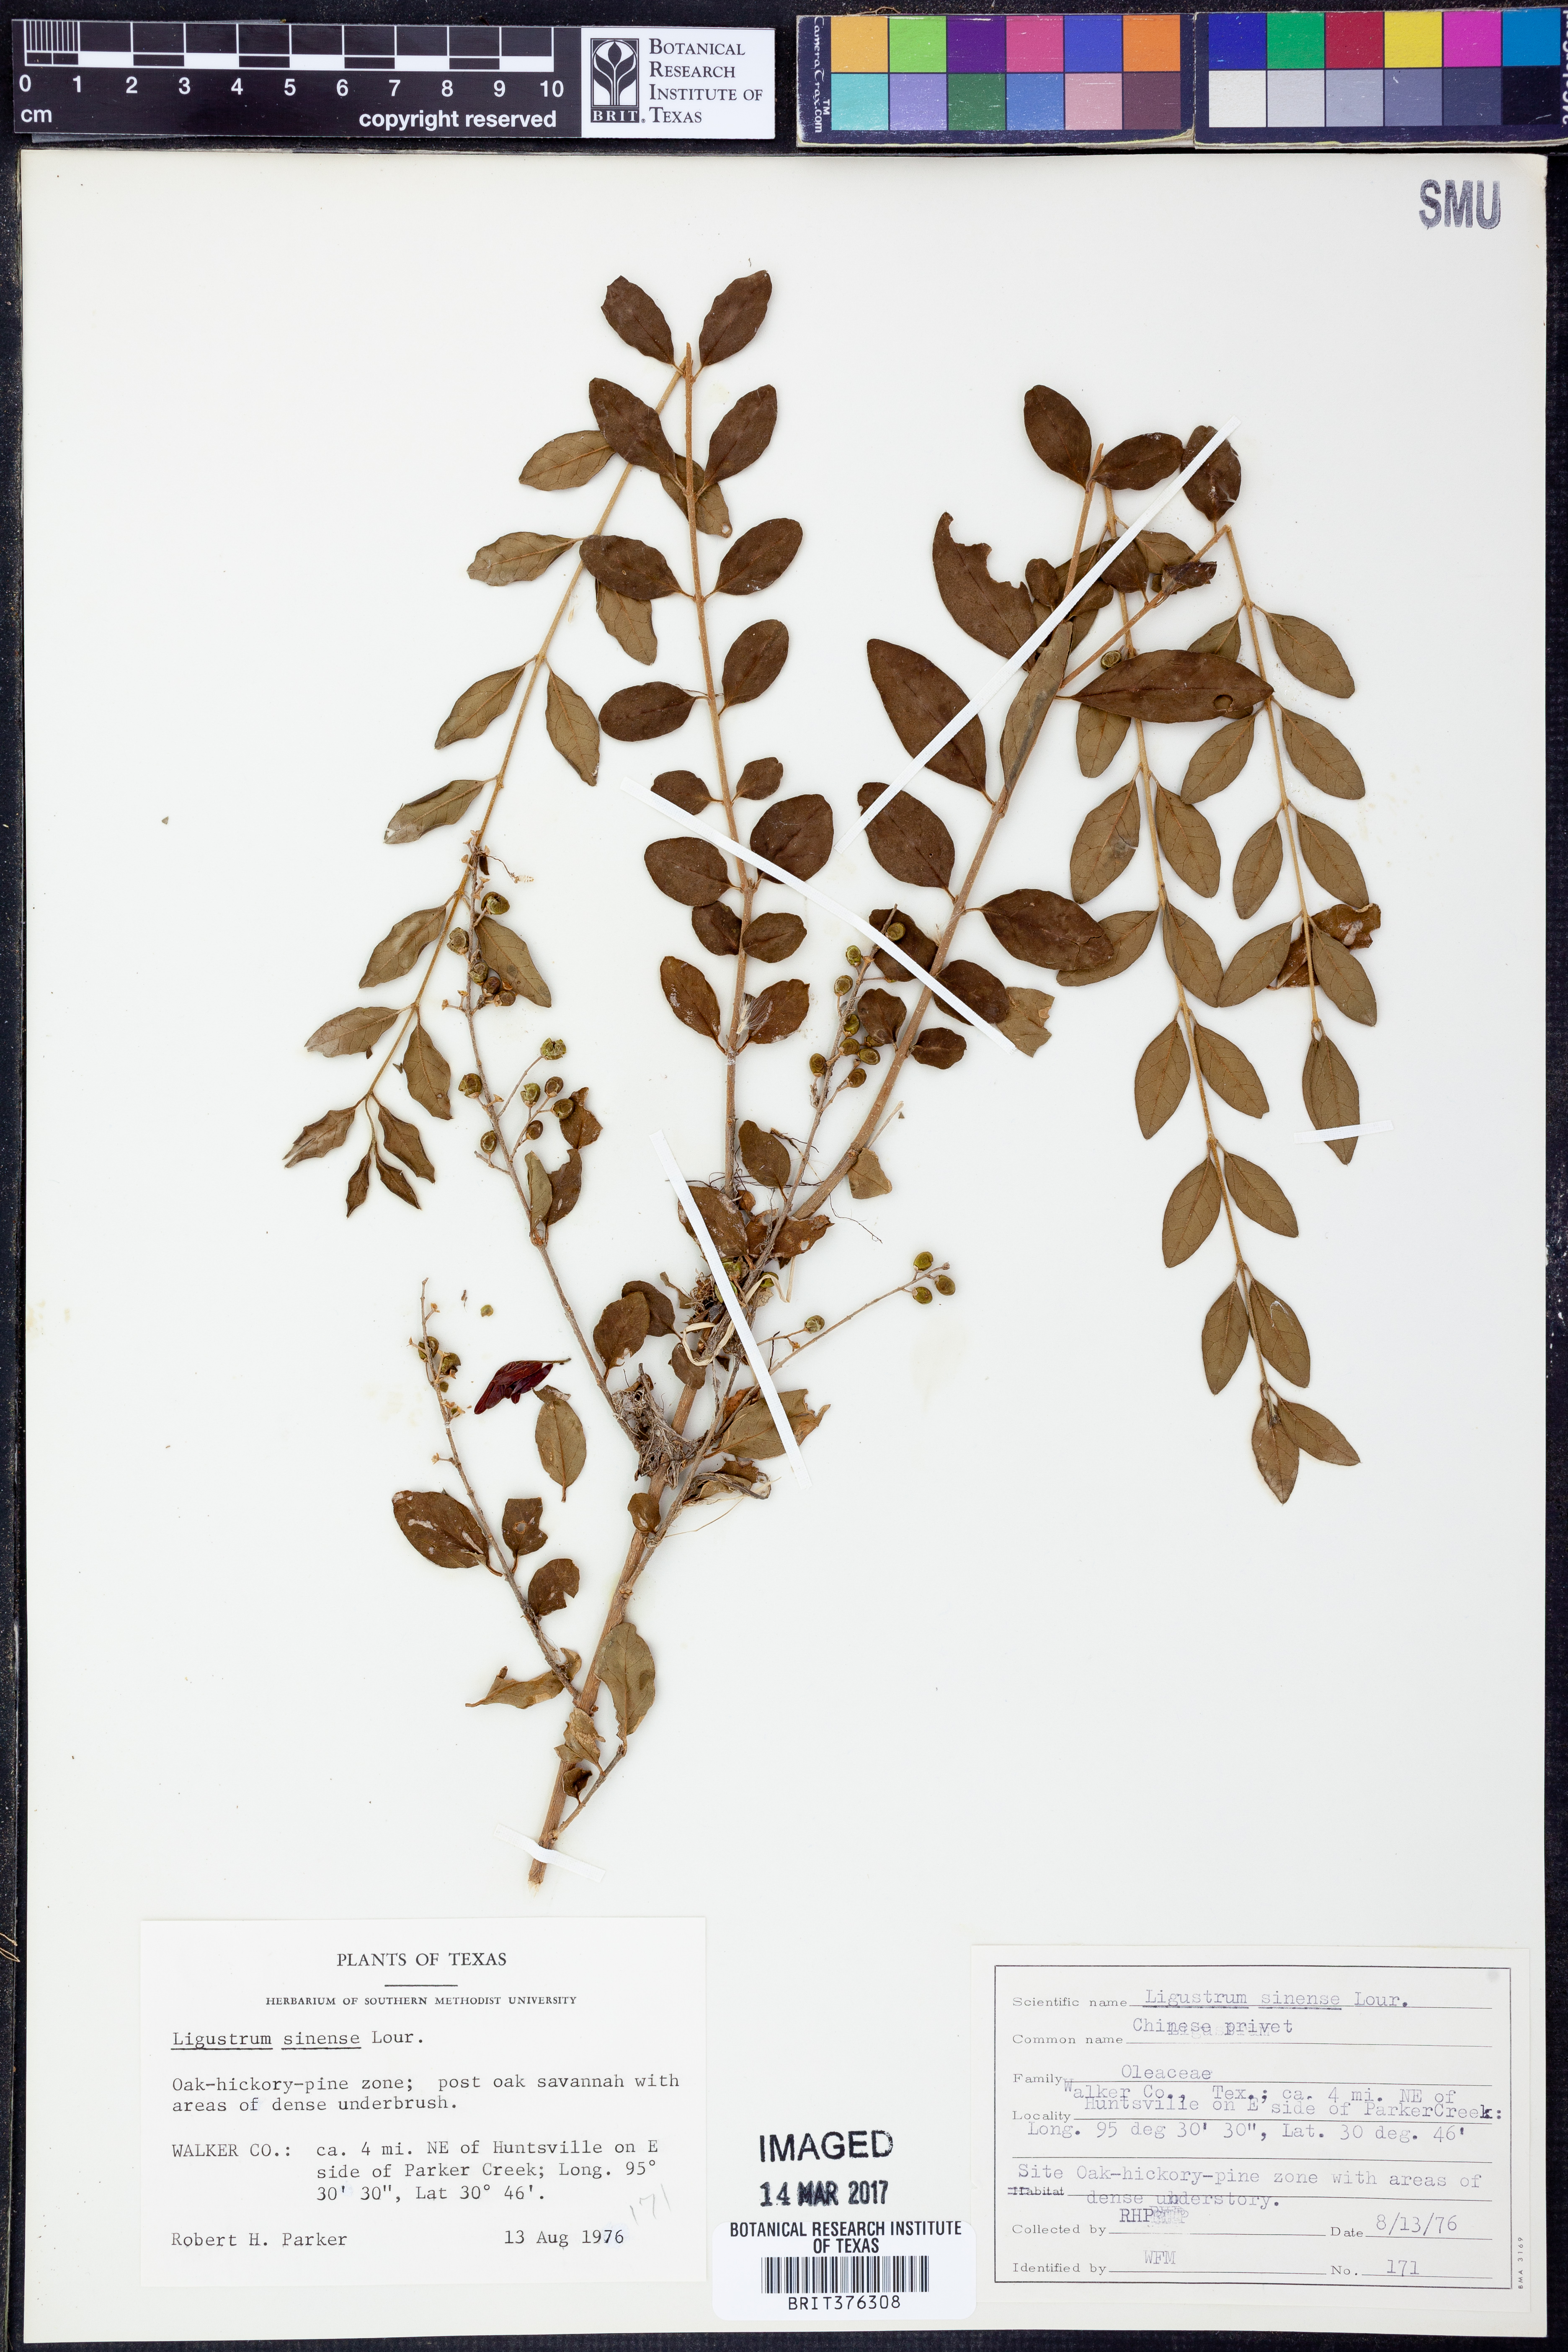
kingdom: Plantae
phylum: Tracheophyta
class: Magnoliopsida
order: Lamiales
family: Oleaceae
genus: Ligustrum
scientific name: Ligustrum sinense
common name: Chinese privet
